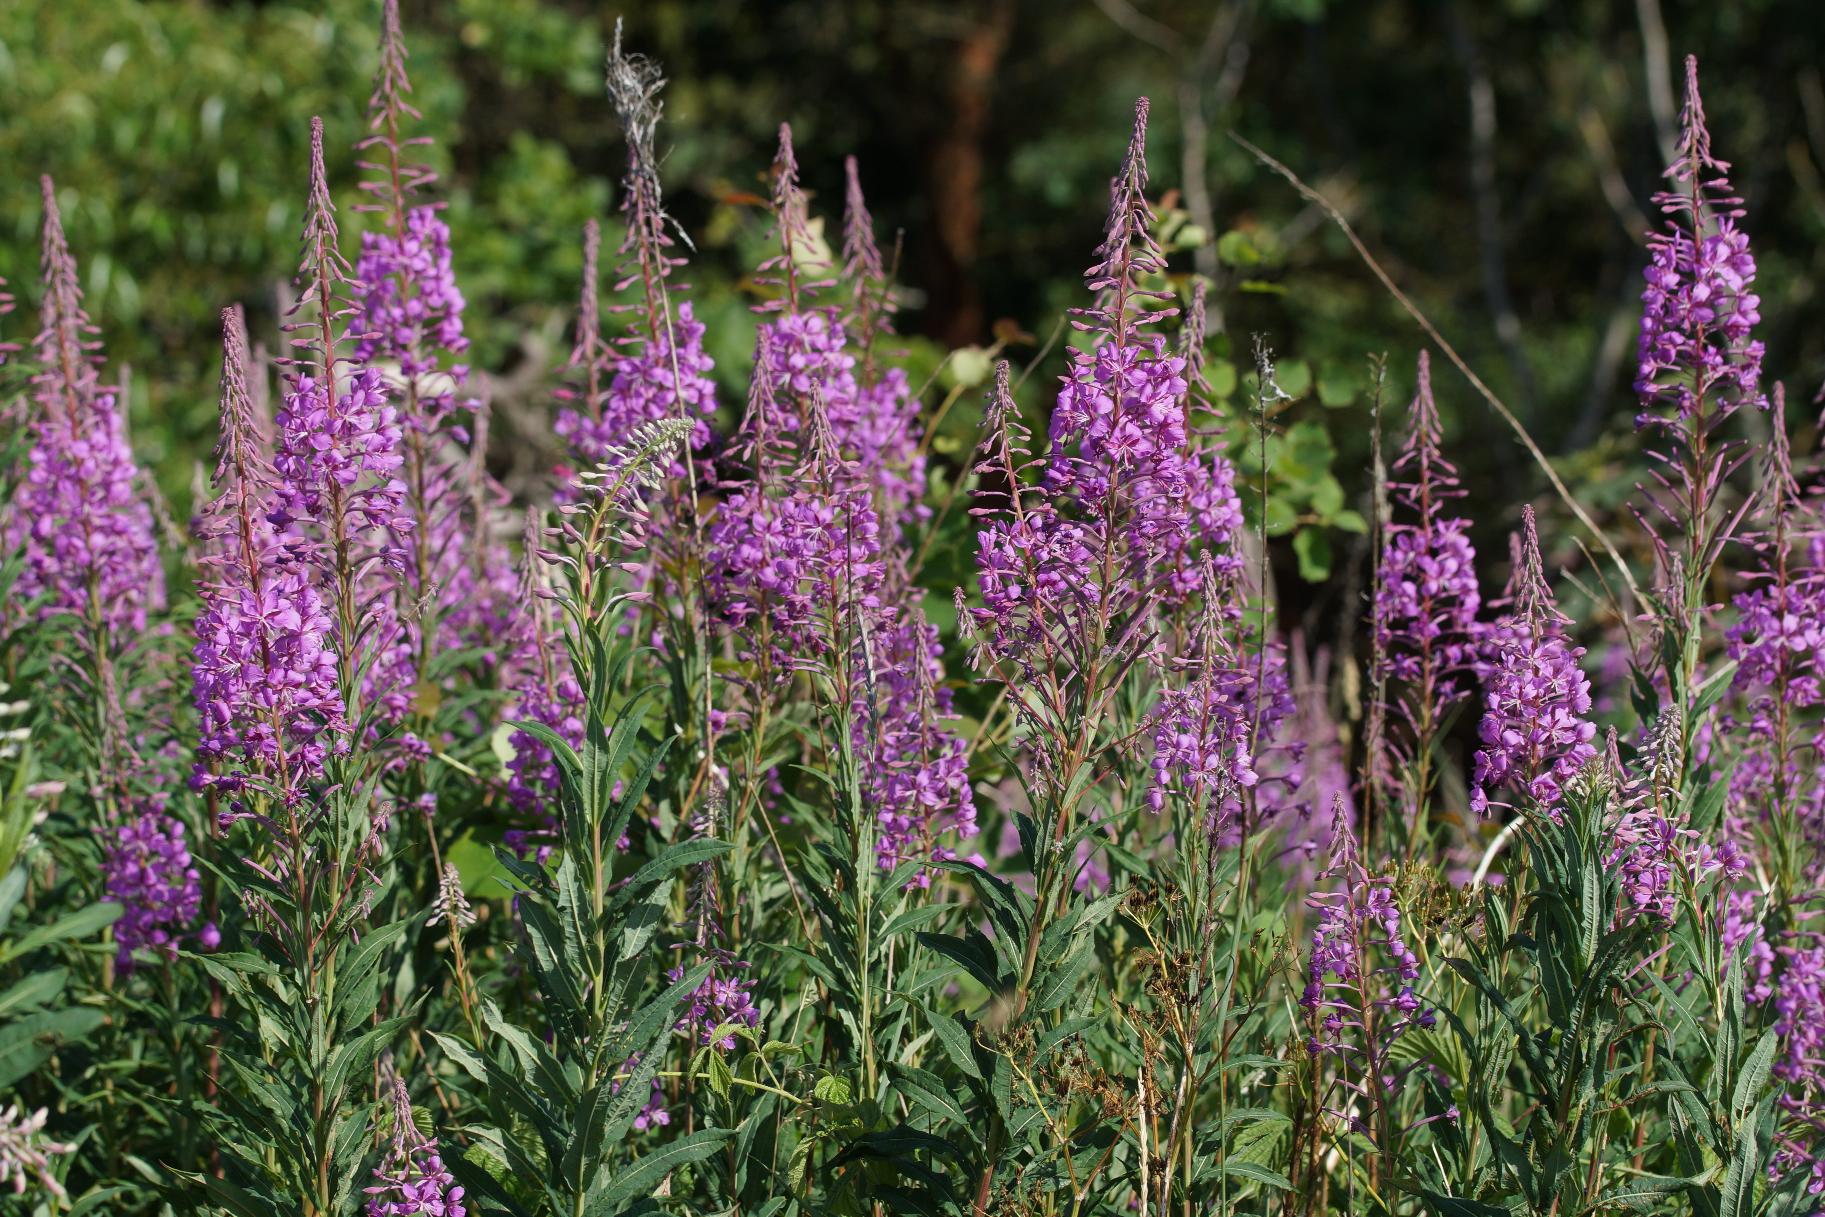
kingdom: Plantae
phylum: Tracheophyta
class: Magnoliopsida
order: Myrtales
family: Onagraceae
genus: Chamaenerion
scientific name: Chamaenerion angustifolium
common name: Gederams
